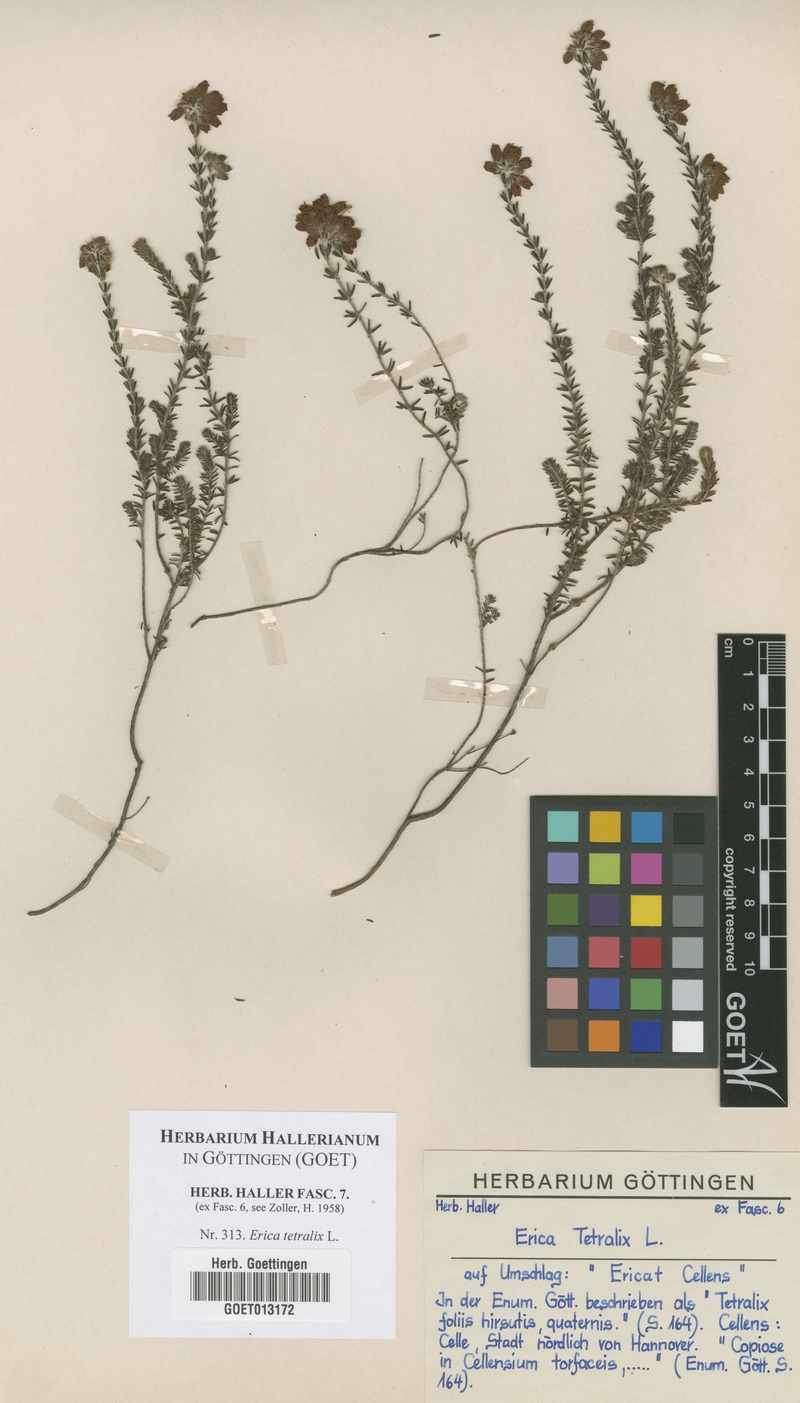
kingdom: Plantae
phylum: Tracheophyta
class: Magnoliopsida
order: Ericales
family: Ericaceae
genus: Erica
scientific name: Erica tetralix
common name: Cross-leaved heath
